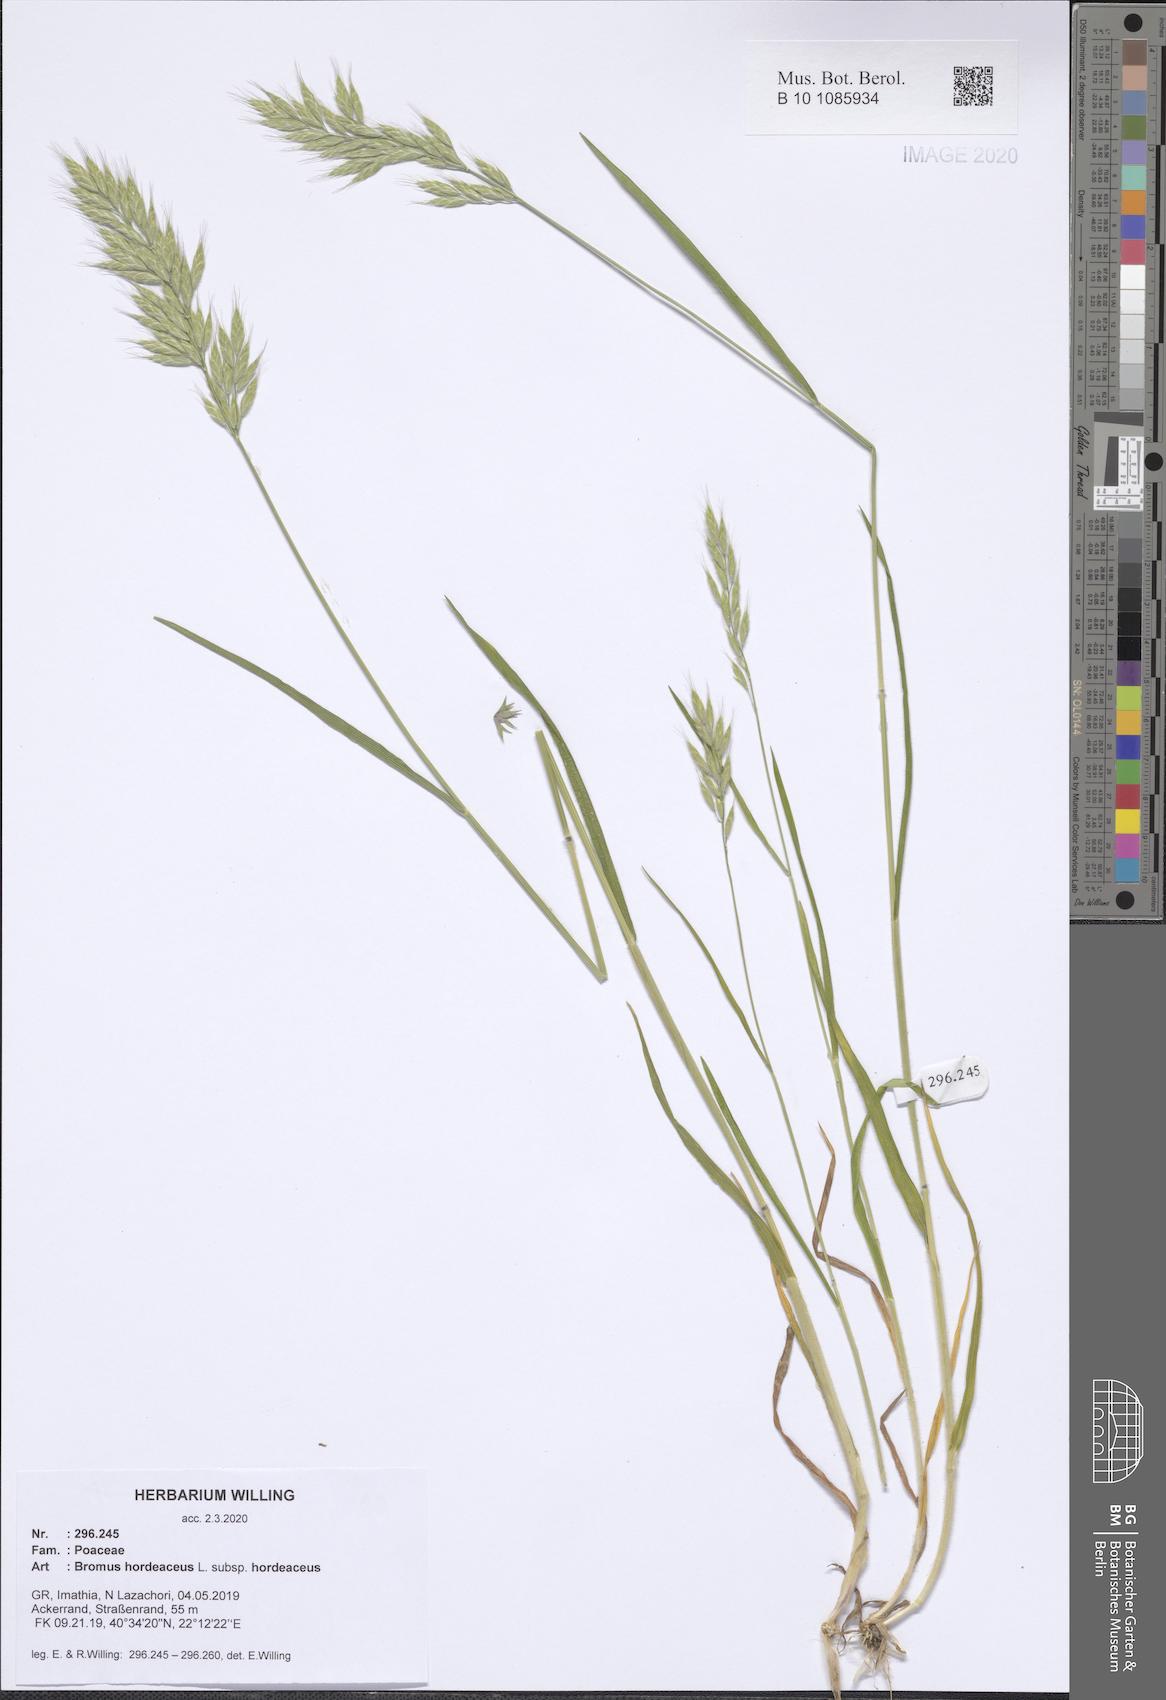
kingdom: Plantae
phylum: Tracheophyta
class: Liliopsida
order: Poales
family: Poaceae
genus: Bromus
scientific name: Bromus hordeaceus
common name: Soft brome
